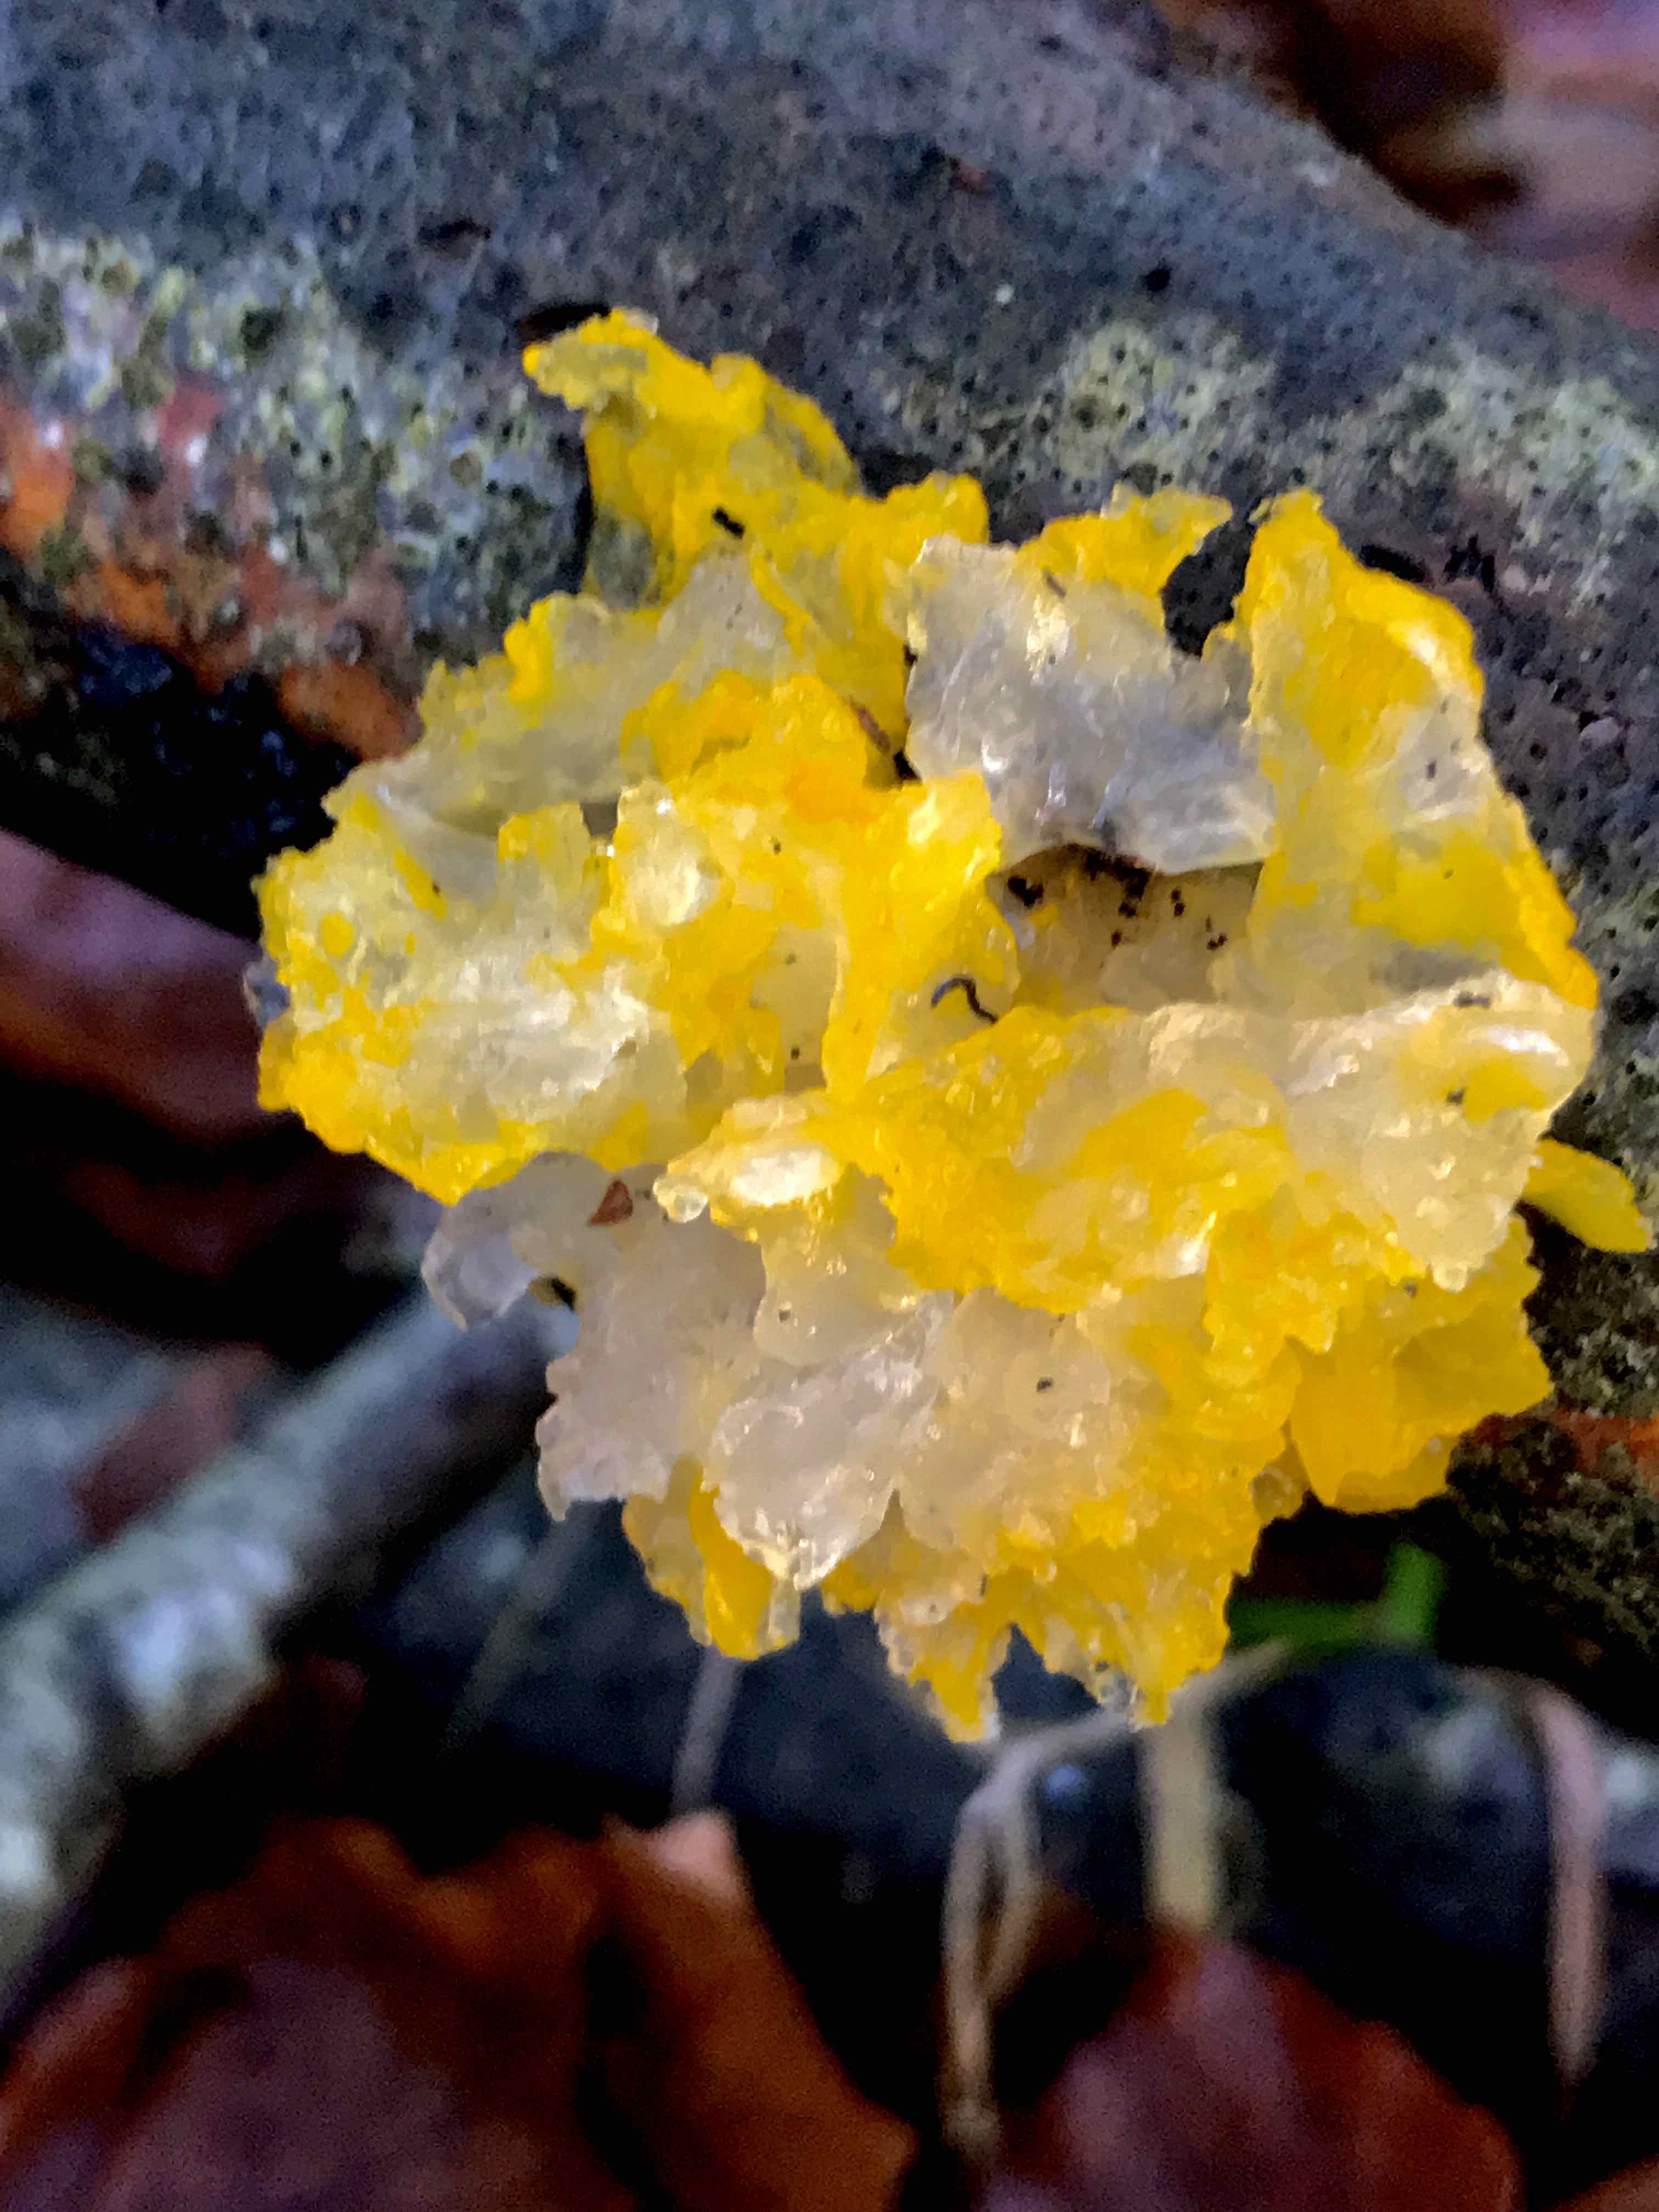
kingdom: Fungi
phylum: Basidiomycota
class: Tremellomycetes
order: Tremellales
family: Tremellaceae
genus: Tremella
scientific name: Tremella mesenterica
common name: gul bævresvamp
